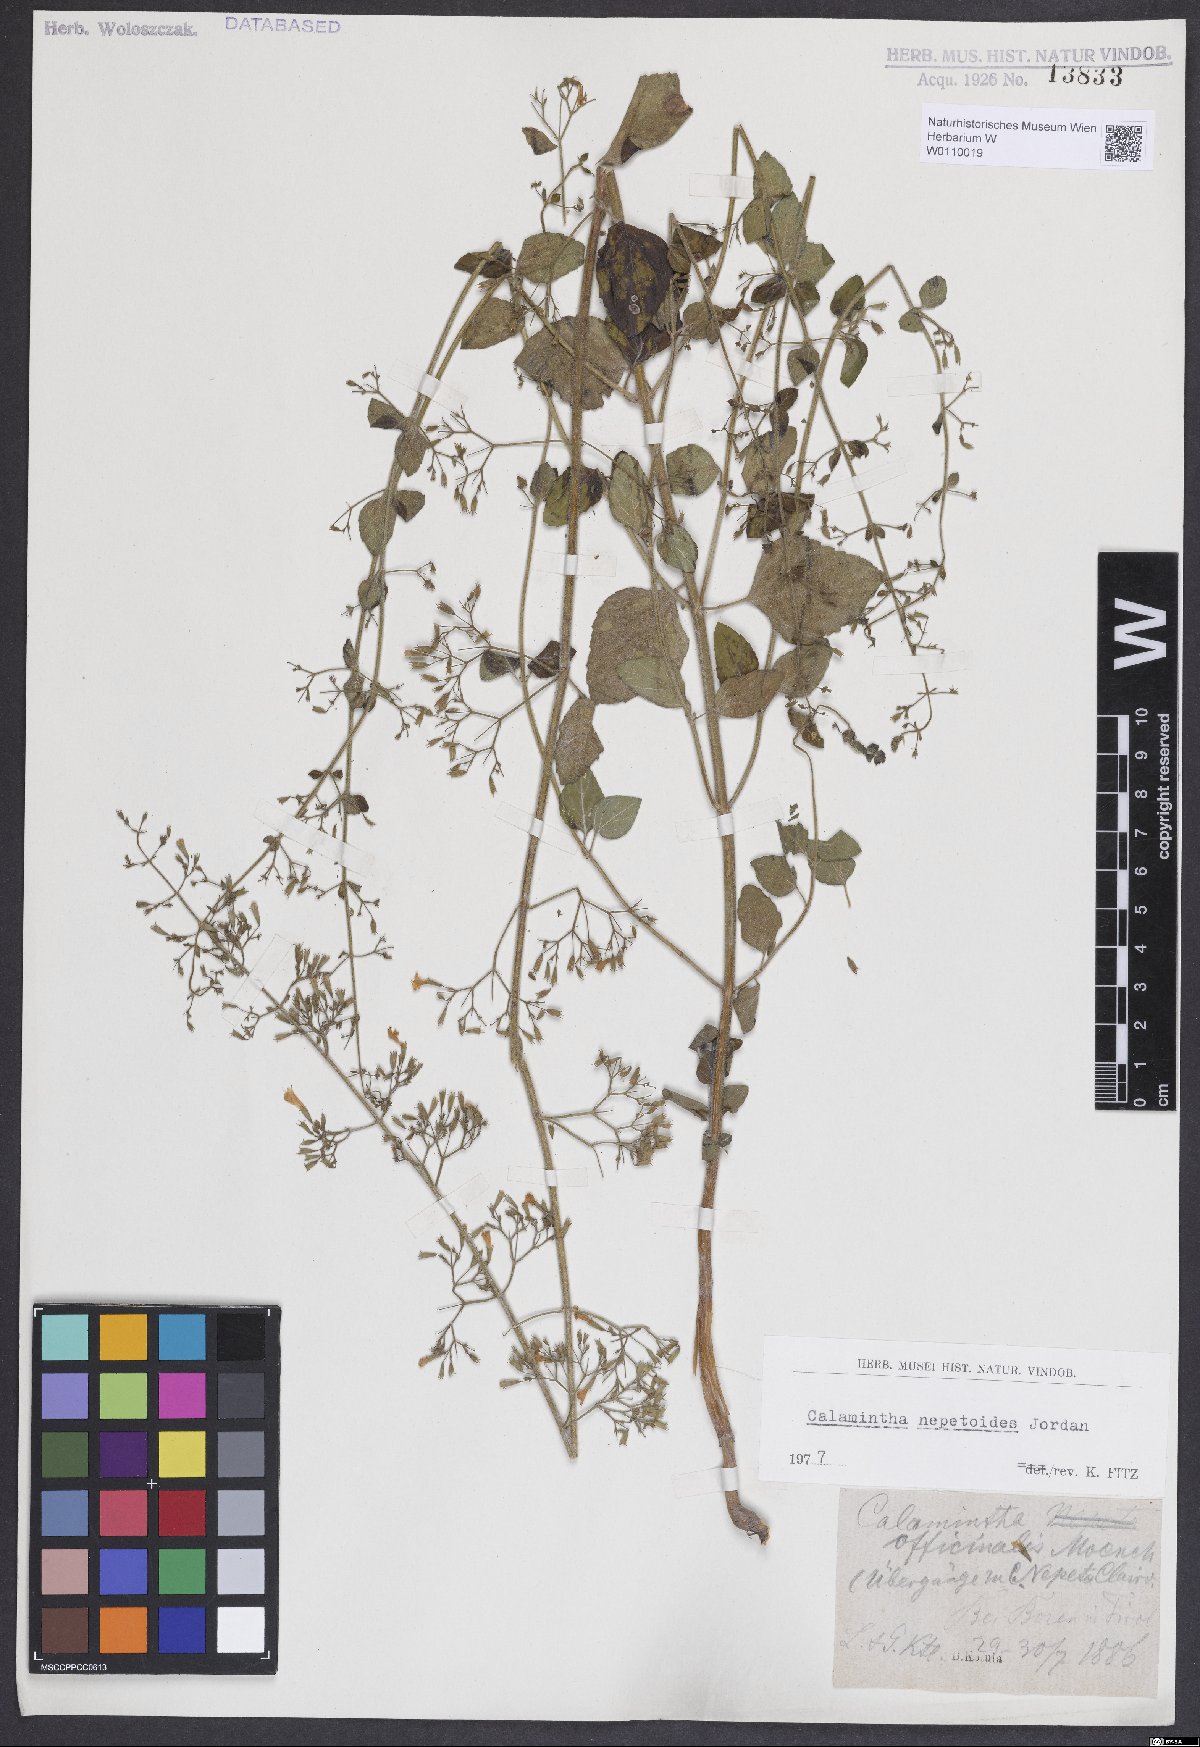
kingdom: Plantae
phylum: Tracheophyta
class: Magnoliopsida
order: Lamiales
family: Lamiaceae
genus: Clinopodium
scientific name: Clinopodium nepeta
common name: Lesser calamint
